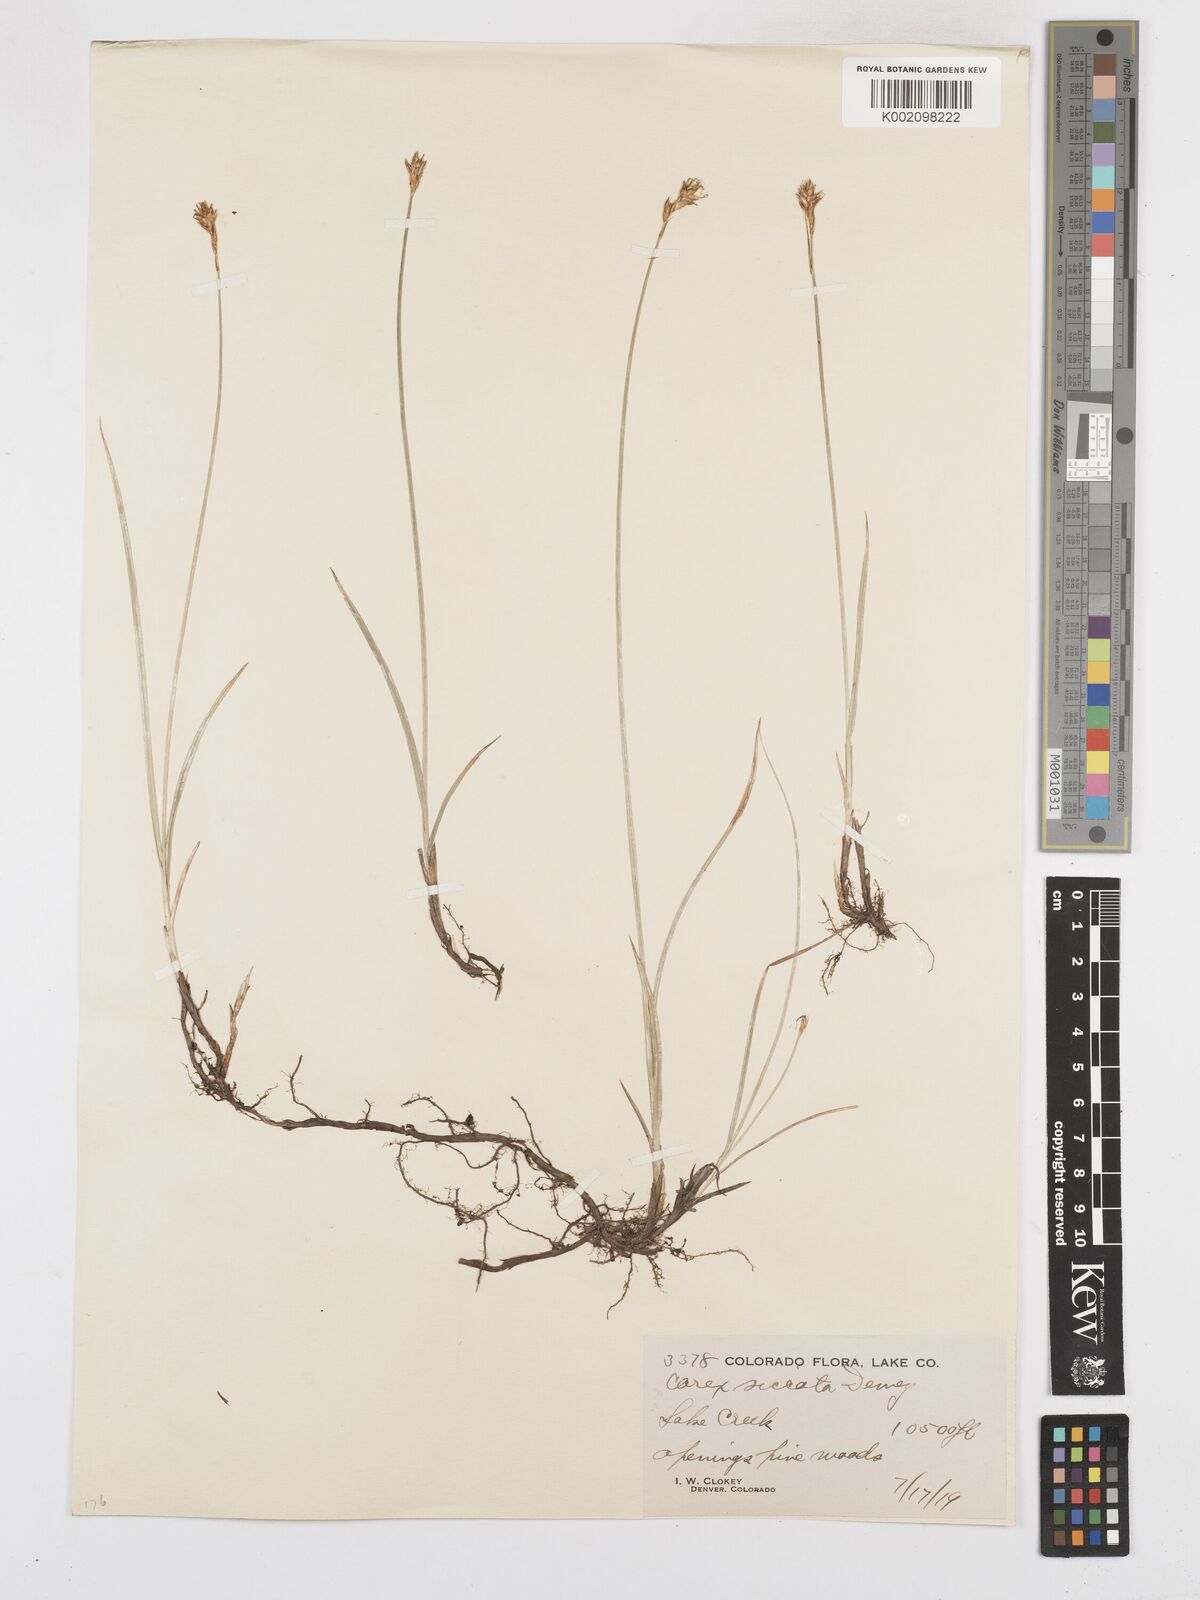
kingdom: Plantae
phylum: Tracheophyta
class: Liliopsida
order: Poales
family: Cyperaceae
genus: Carex
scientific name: Carex foenea
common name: Bronze sedge
